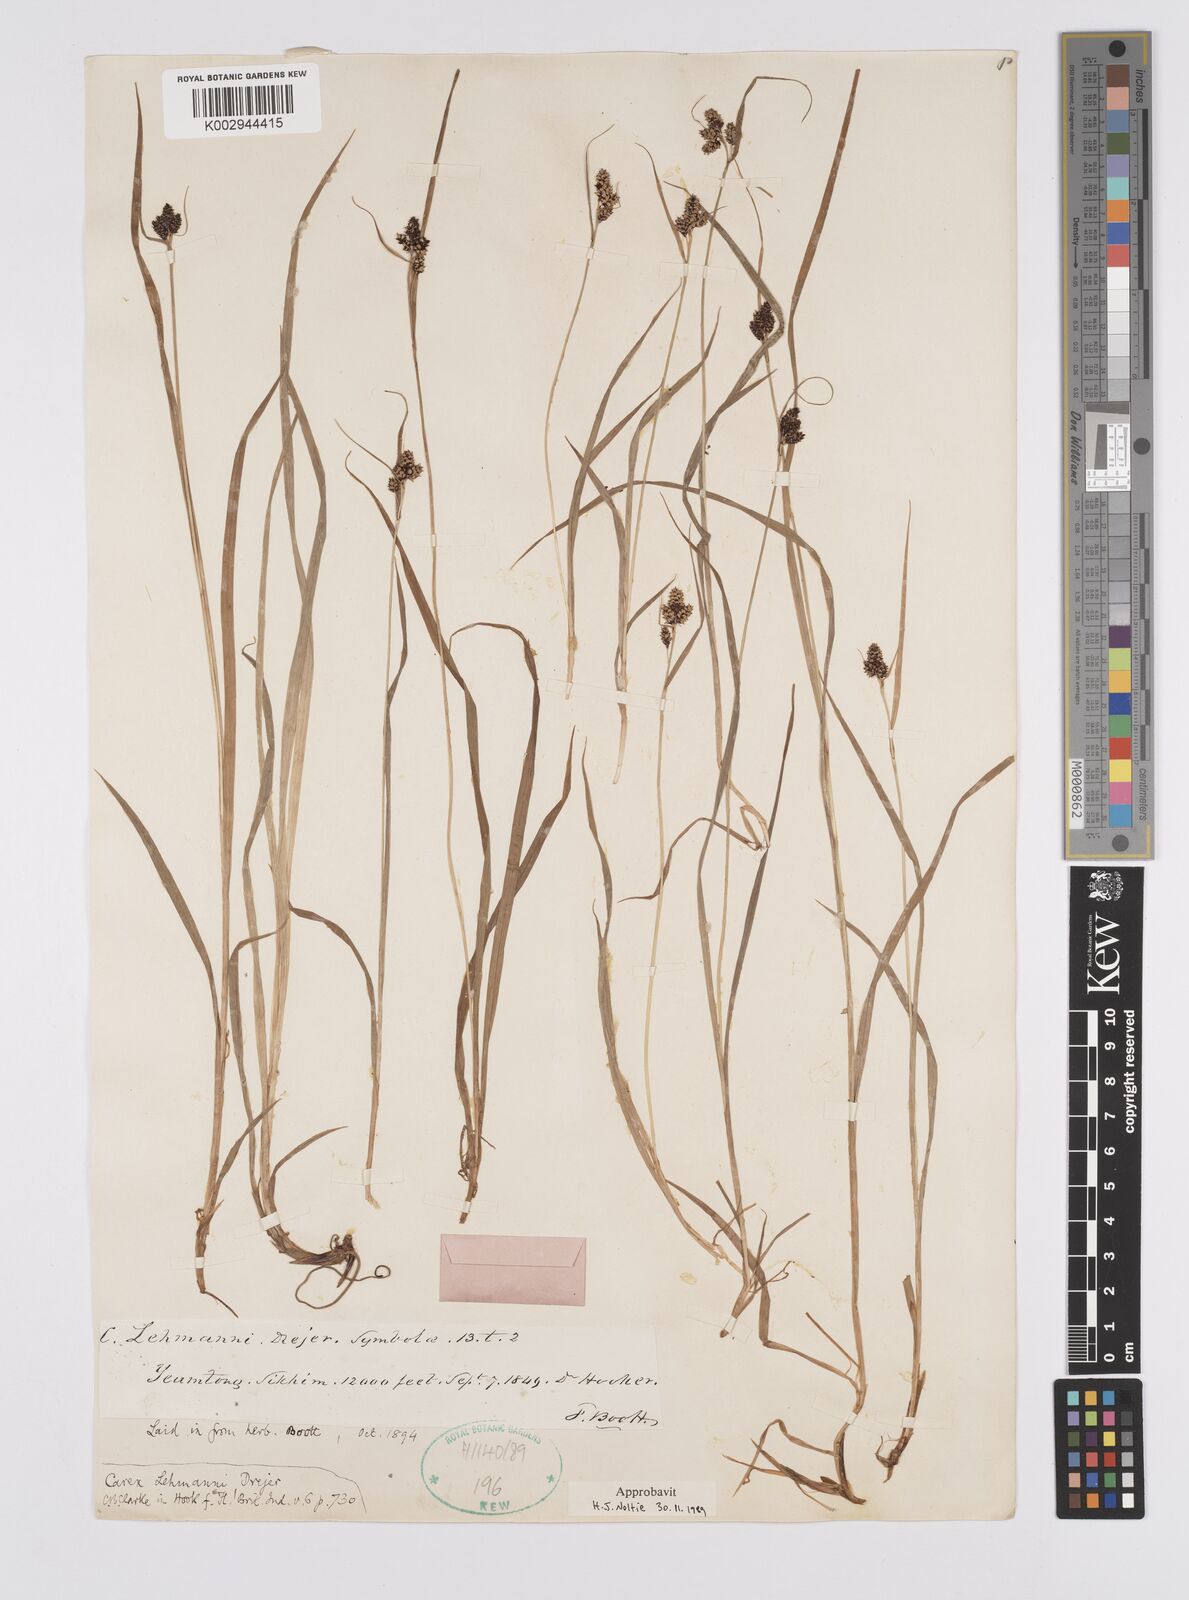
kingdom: Plantae
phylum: Tracheophyta
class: Liliopsida
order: Poales
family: Cyperaceae
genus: Carex
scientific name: Carex lehmannii
